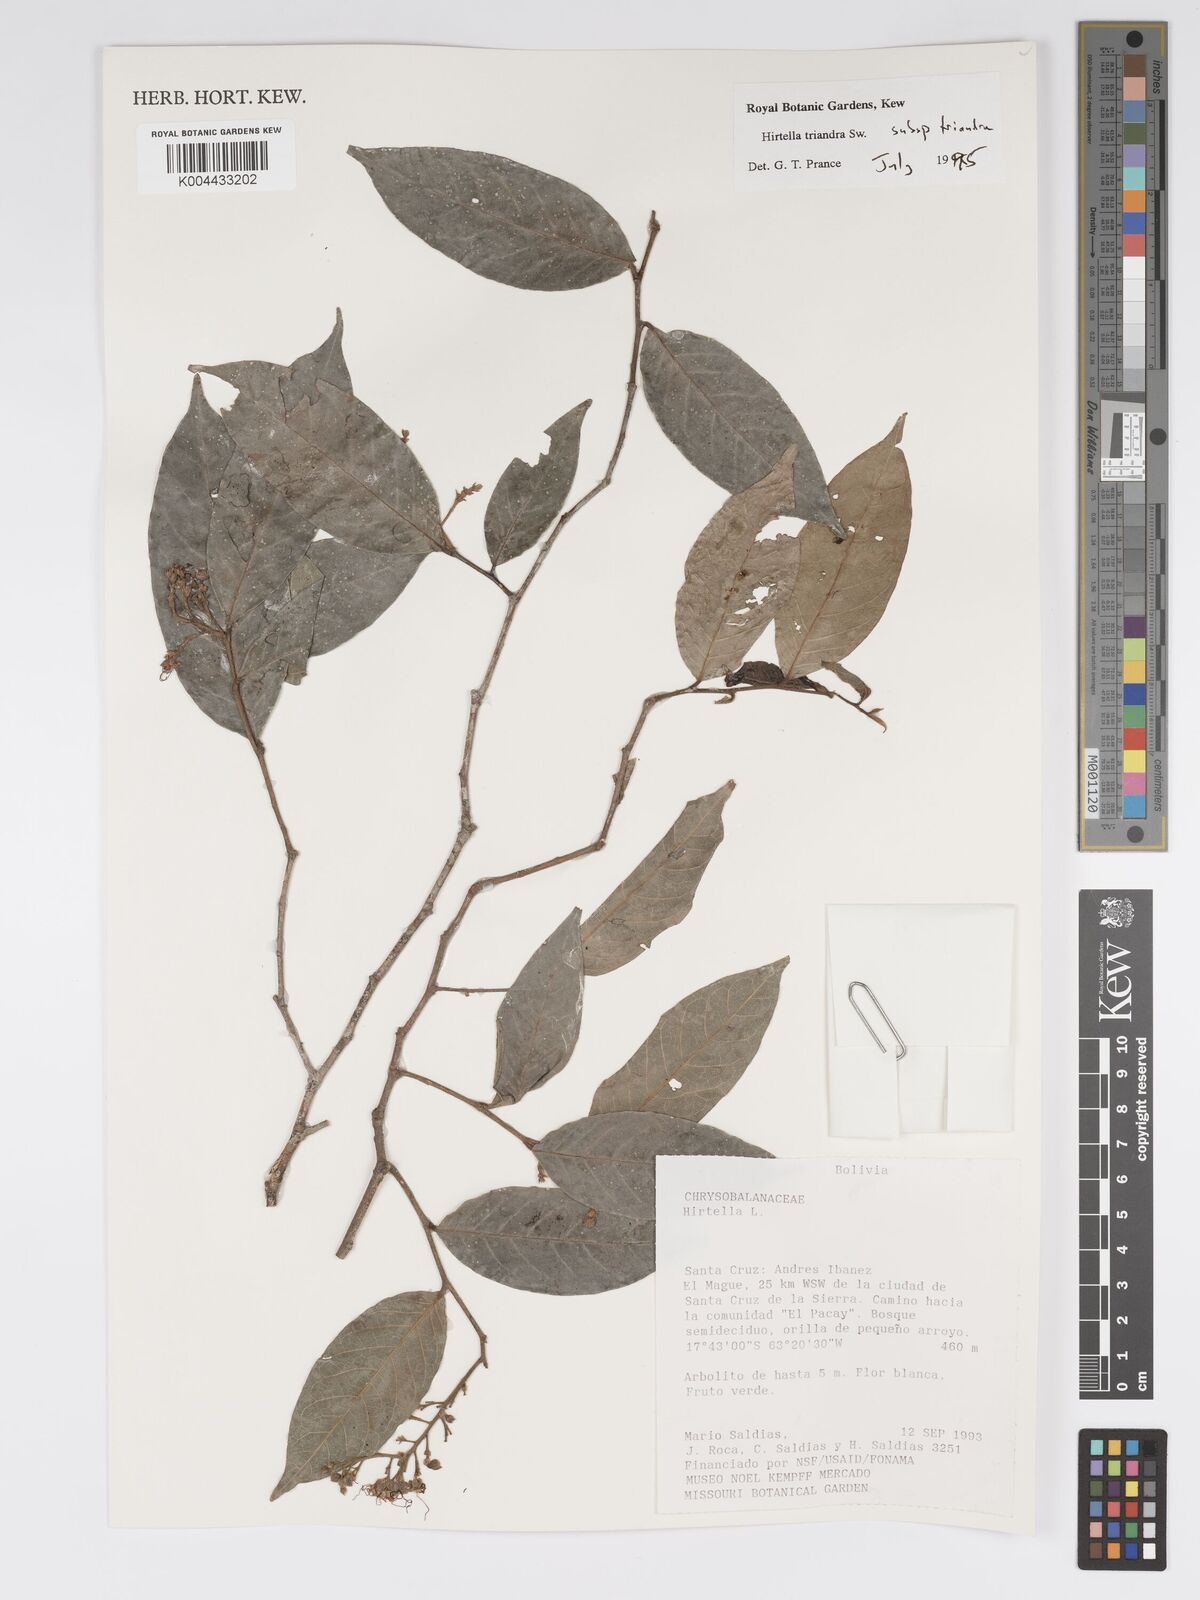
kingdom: Plantae
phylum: Tracheophyta
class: Magnoliopsida
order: Malpighiales
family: Chrysobalanaceae
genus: Hirtella
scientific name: Hirtella triandra
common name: Hairy plum
